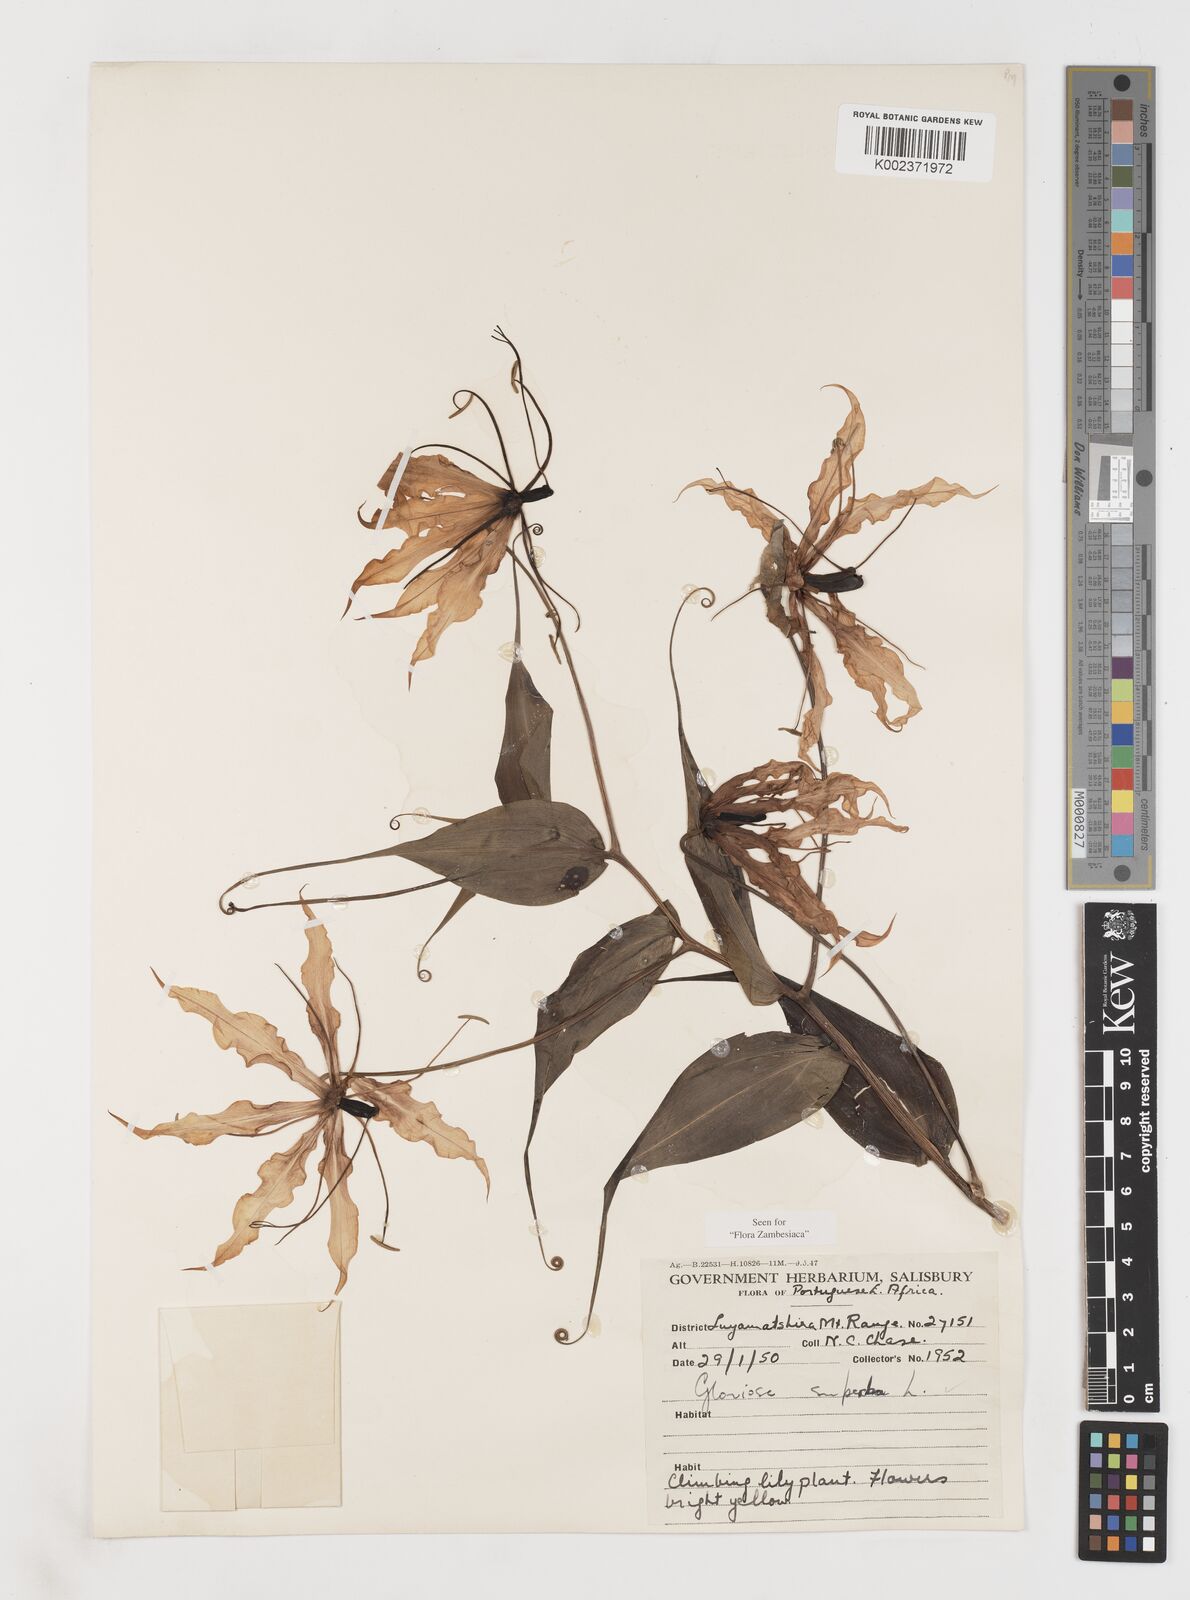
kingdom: Plantae
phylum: Tracheophyta
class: Liliopsida
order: Liliales
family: Colchicaceae
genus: Gloriosa
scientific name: Gloriosa superba
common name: Flame lily
